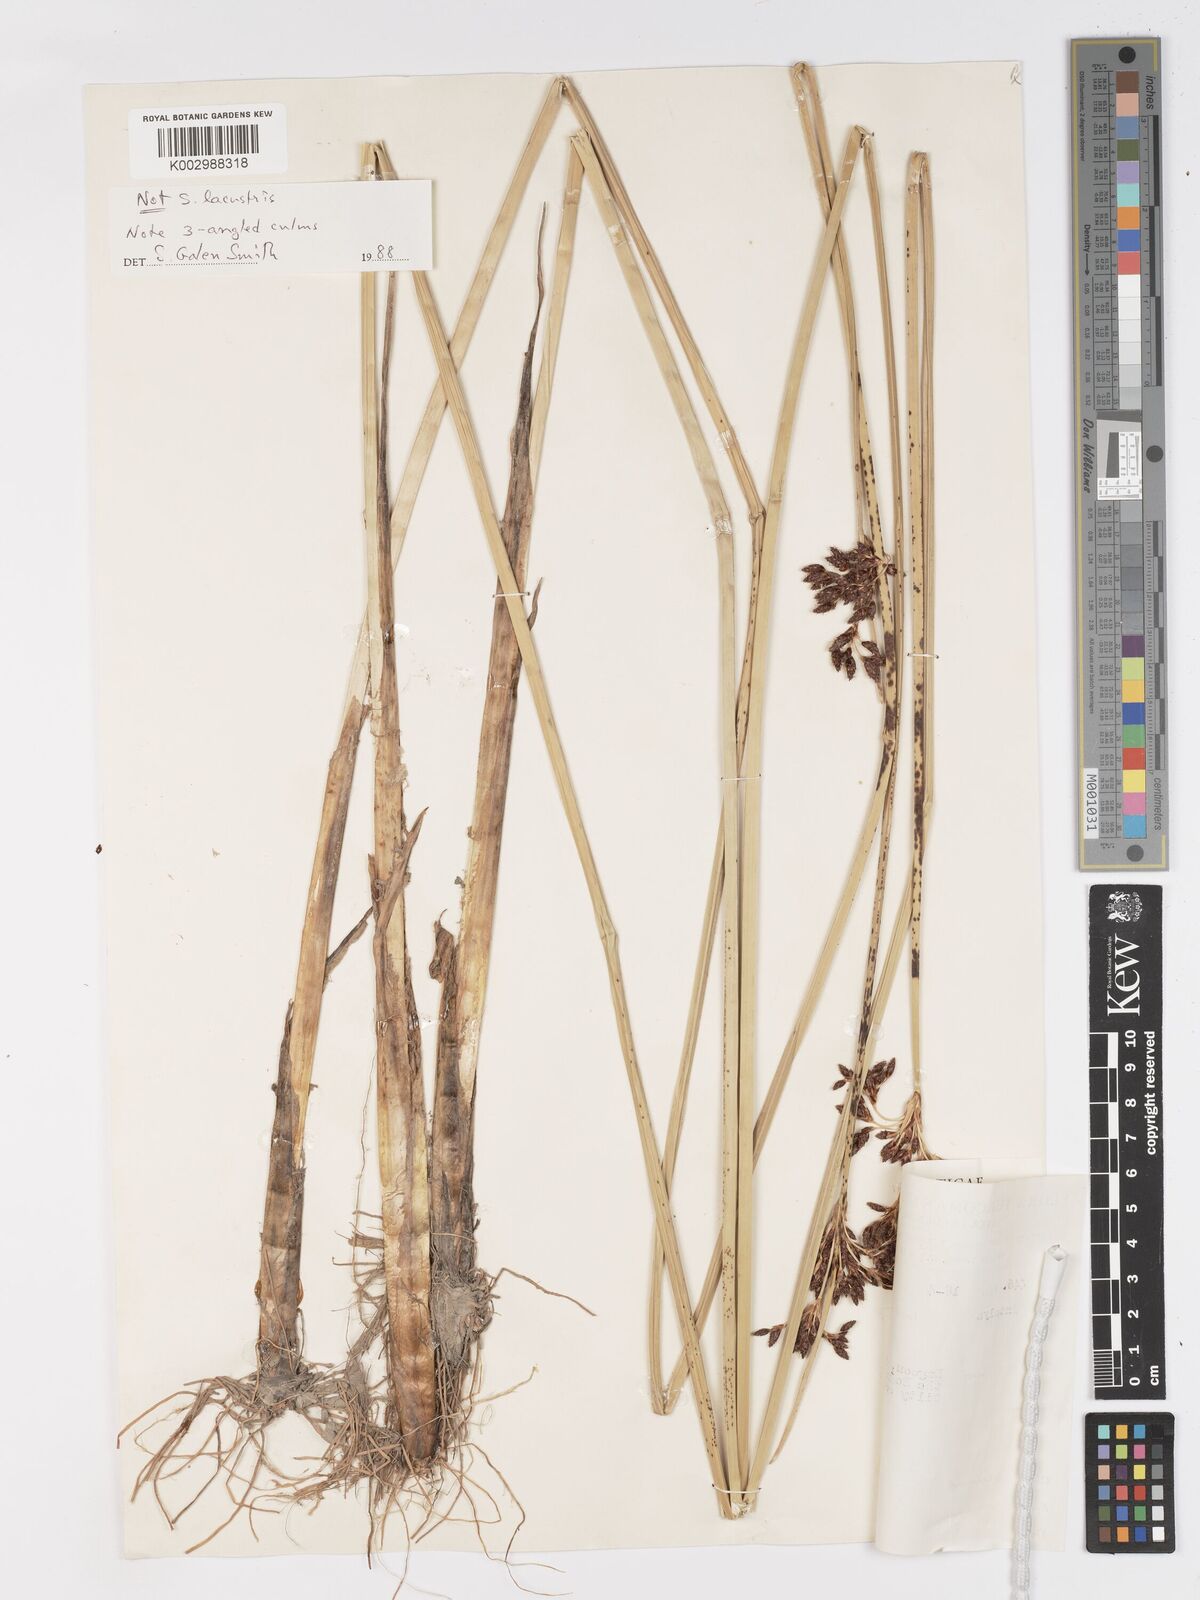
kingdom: Plantae
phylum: Tracheophyta
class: Liliopsida
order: Poales
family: Cyperaceae
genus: Schoenoplectus
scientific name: Schoenoplectus
